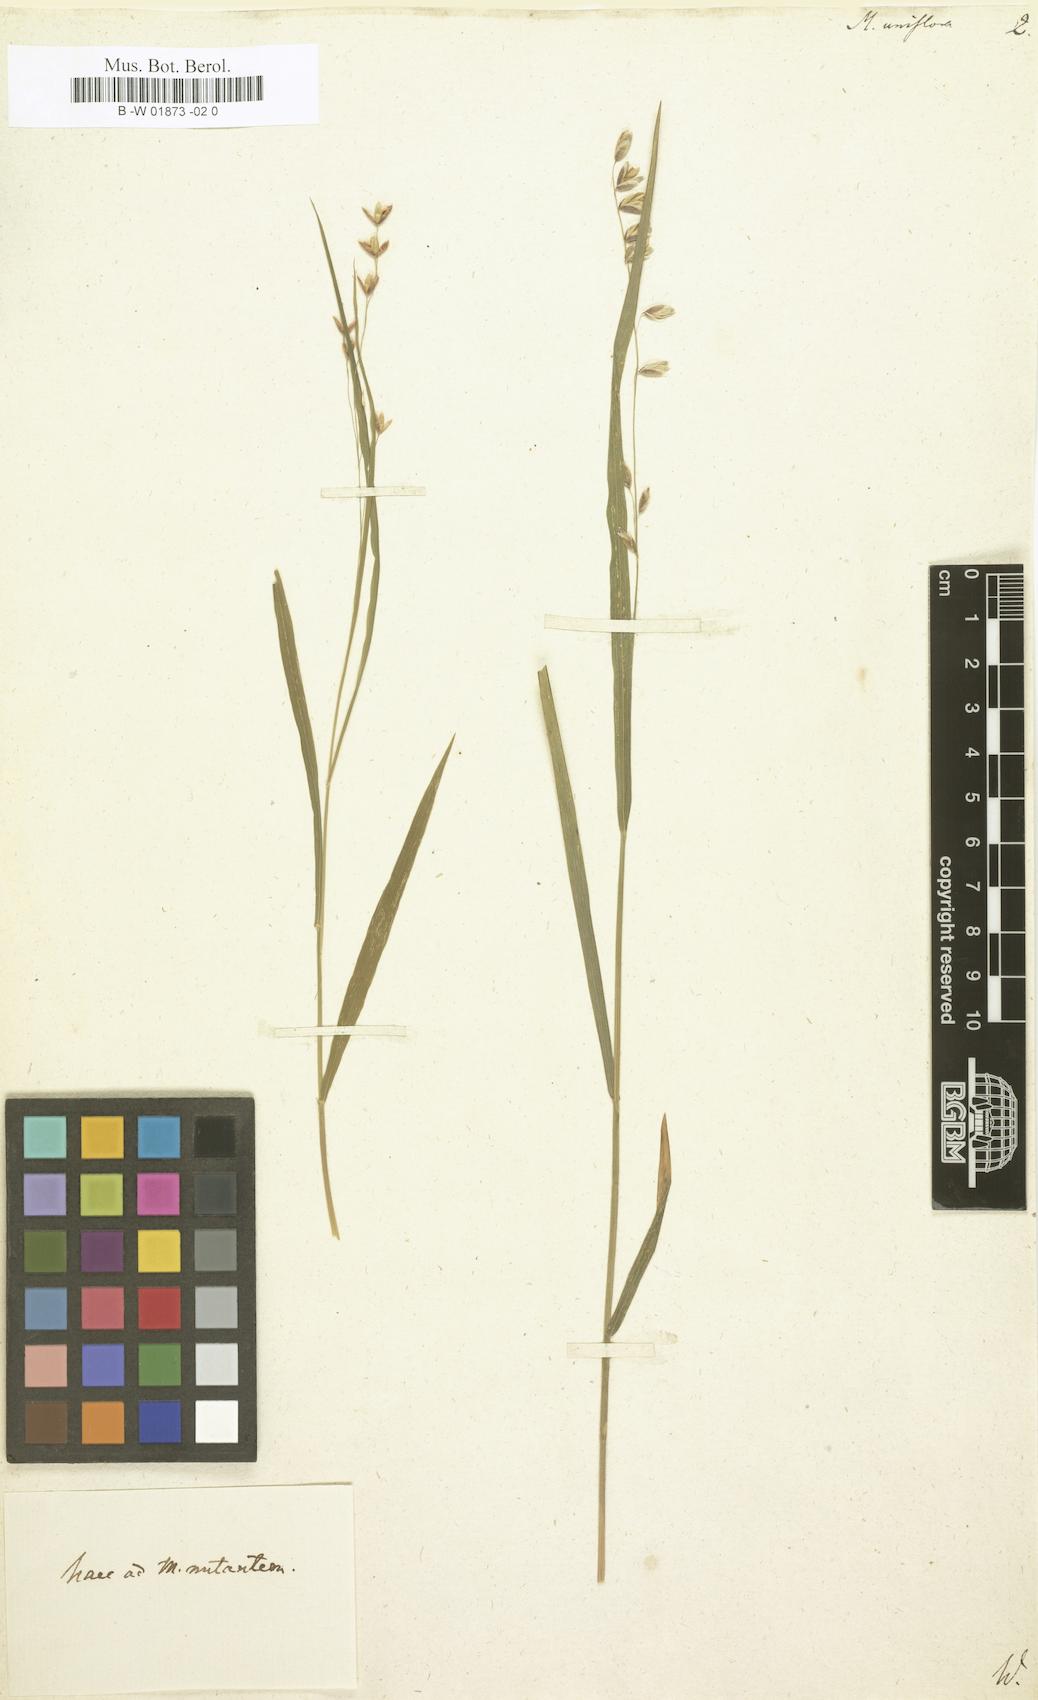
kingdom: Plantae
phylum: Tracheophyta
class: Liliopsida
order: Poales
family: Poaceae
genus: Melica
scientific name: Melica uniflora
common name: Wood melick
